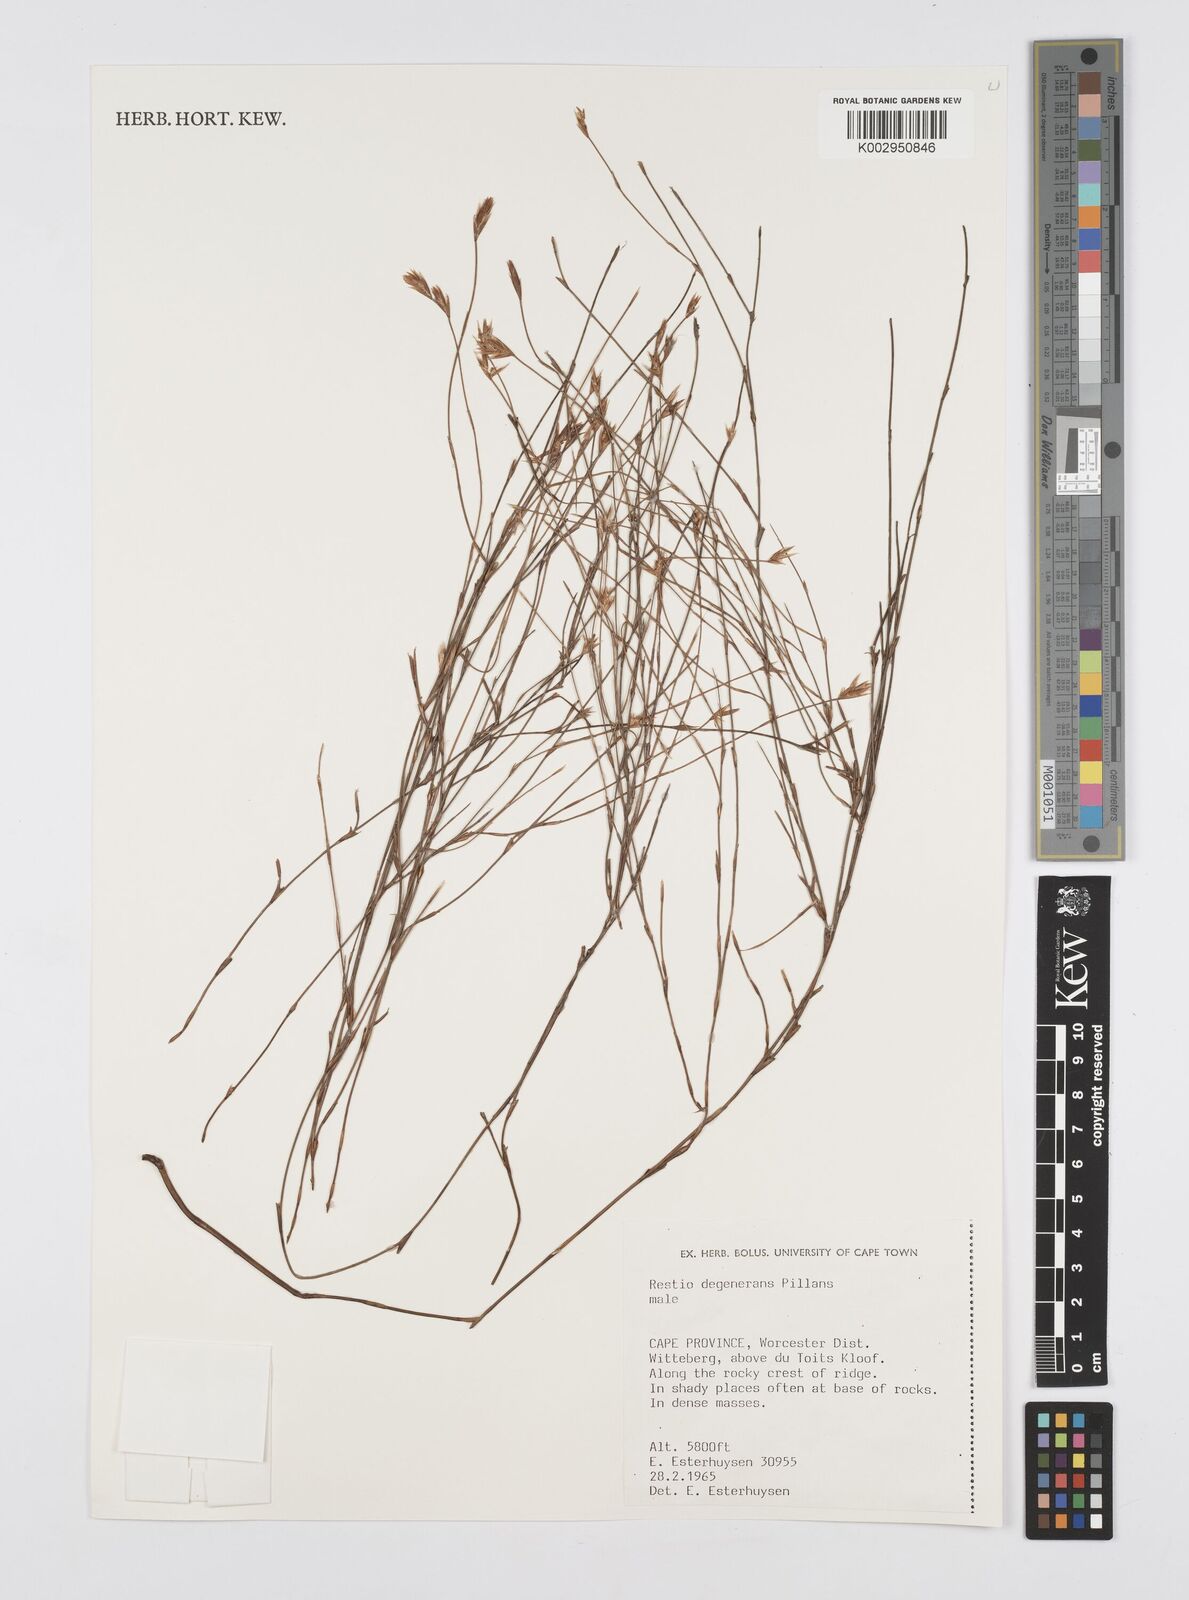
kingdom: Plantae
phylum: Tracheophyta
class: Liliopsida
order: Poales
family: Restionaceae
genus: Restio
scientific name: Restio degenerans
